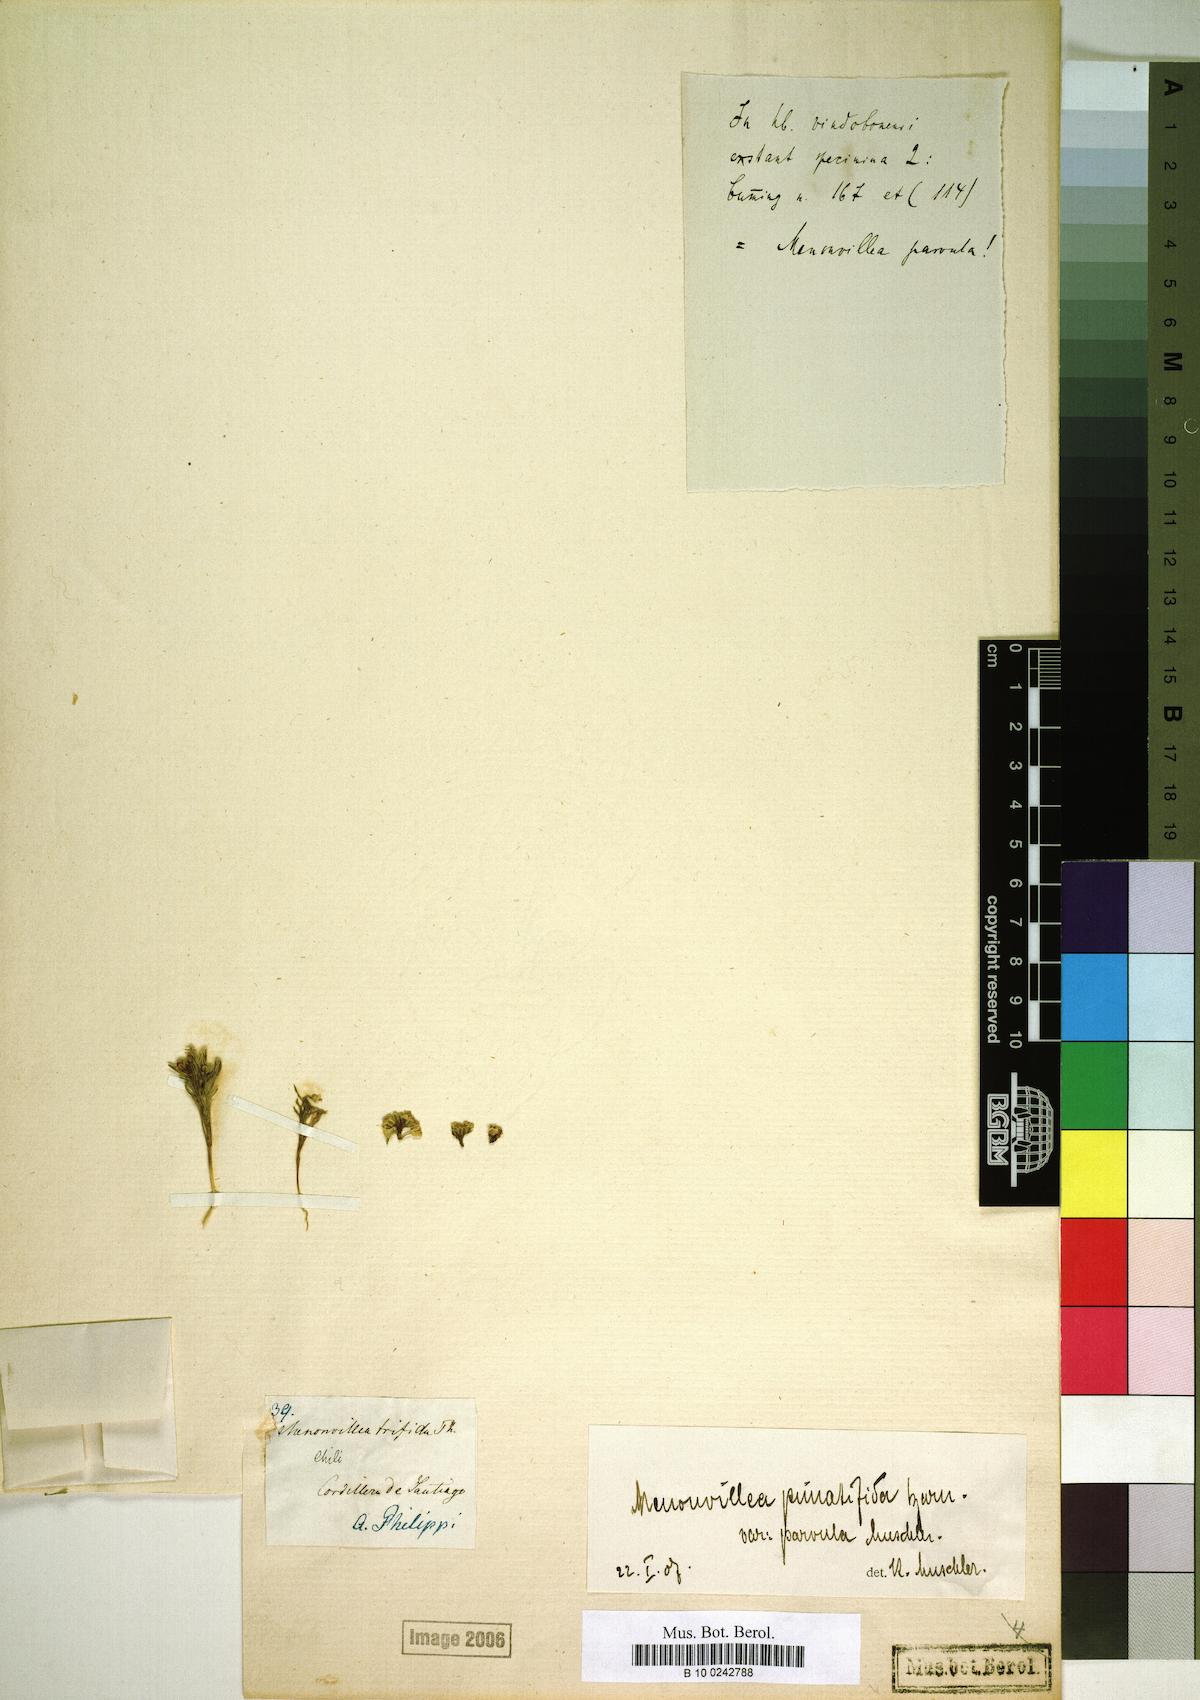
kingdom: Plantae
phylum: Tracheophyta
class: Magnoliopsida
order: Brassicales
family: Brassicaceae
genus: Menonvillea
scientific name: Menonvillea chilensis
